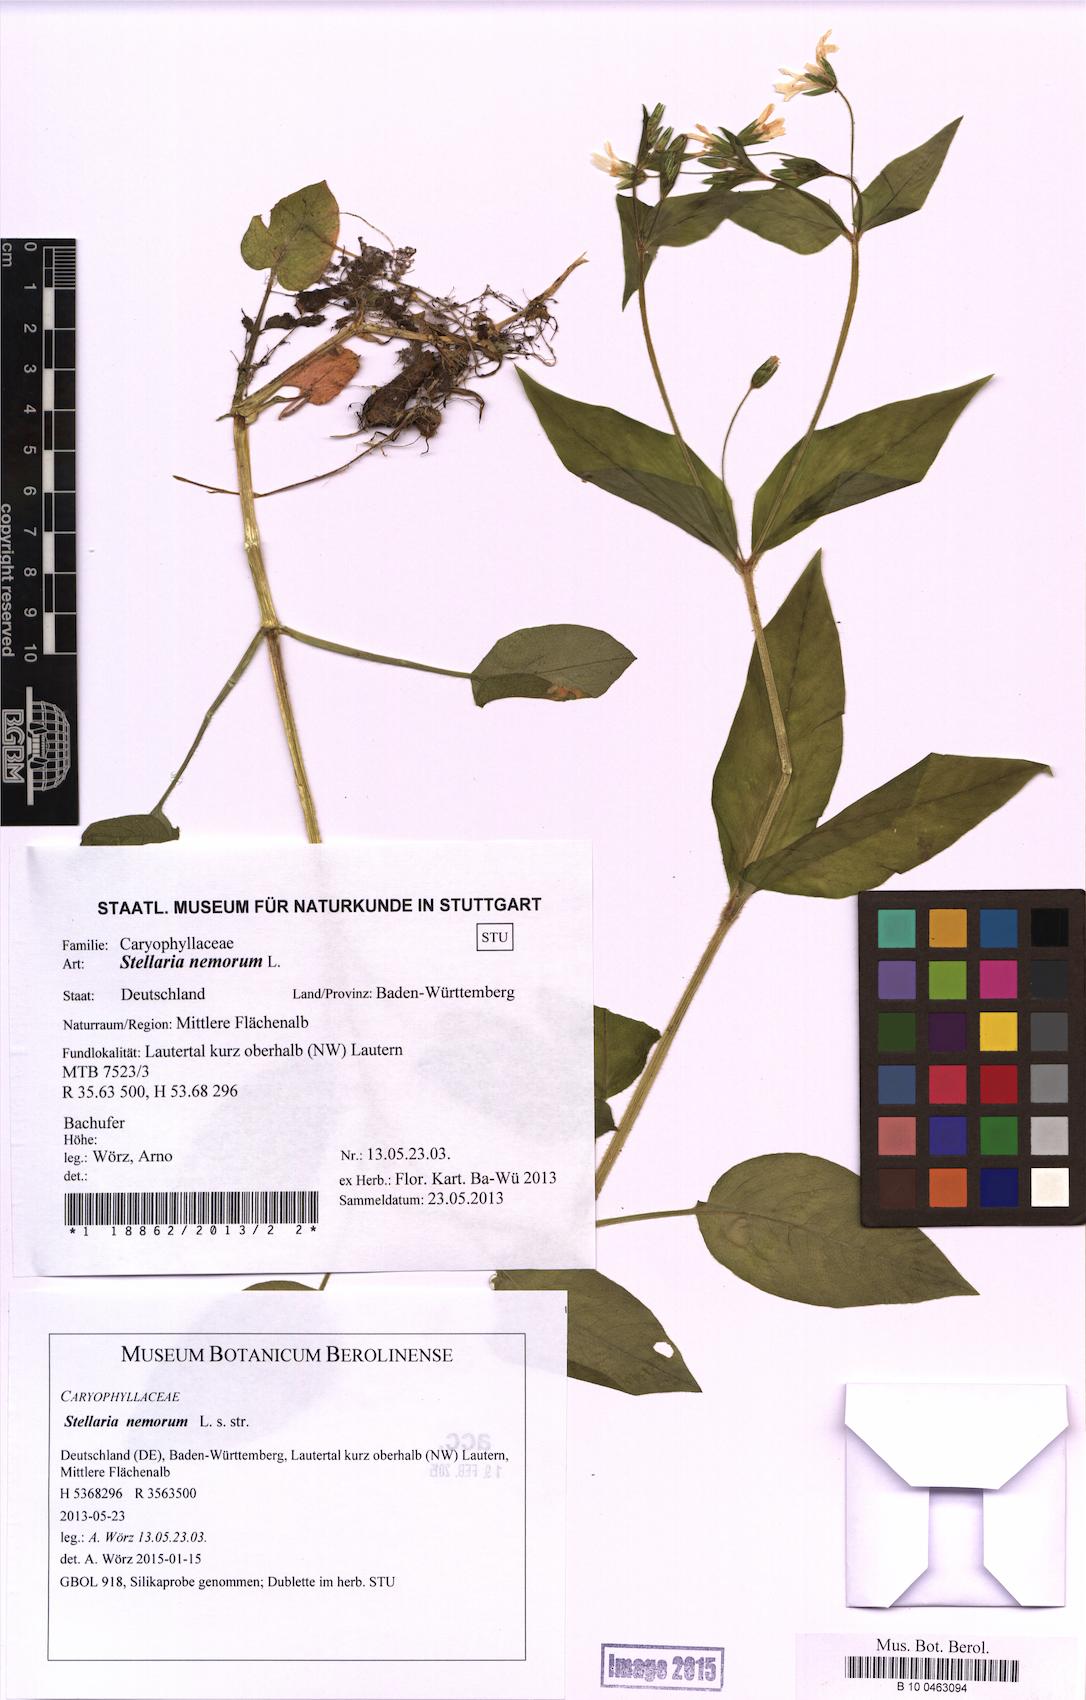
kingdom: Plantae
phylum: Tracheophyta
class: Magnoliopsida
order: Caryophyllales
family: Caryophyllaceae
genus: Stellaria
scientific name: Stellaria nemorum
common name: Wood stitchwort
